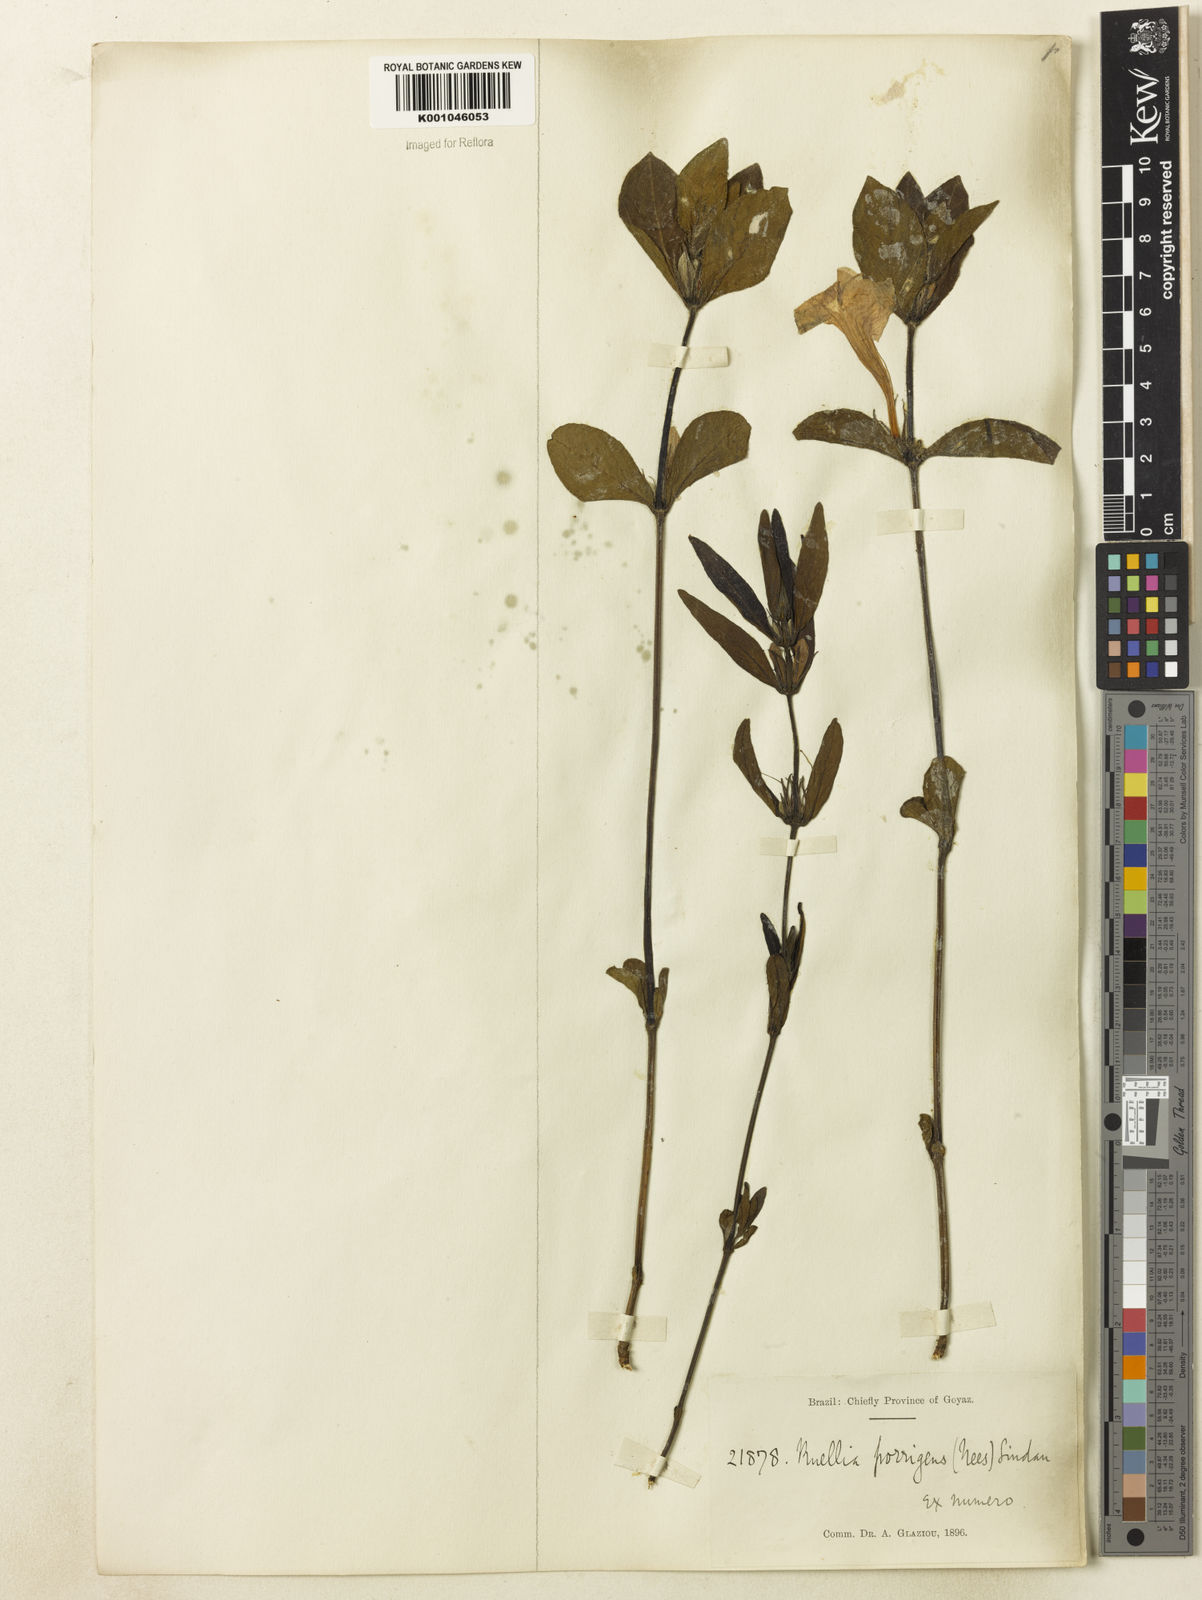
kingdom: Plantae
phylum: Tracheophyta
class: Magnoliopsida
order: Lamiales
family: Acanthaceae
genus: Ruellia
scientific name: Ruellia geminiflora
